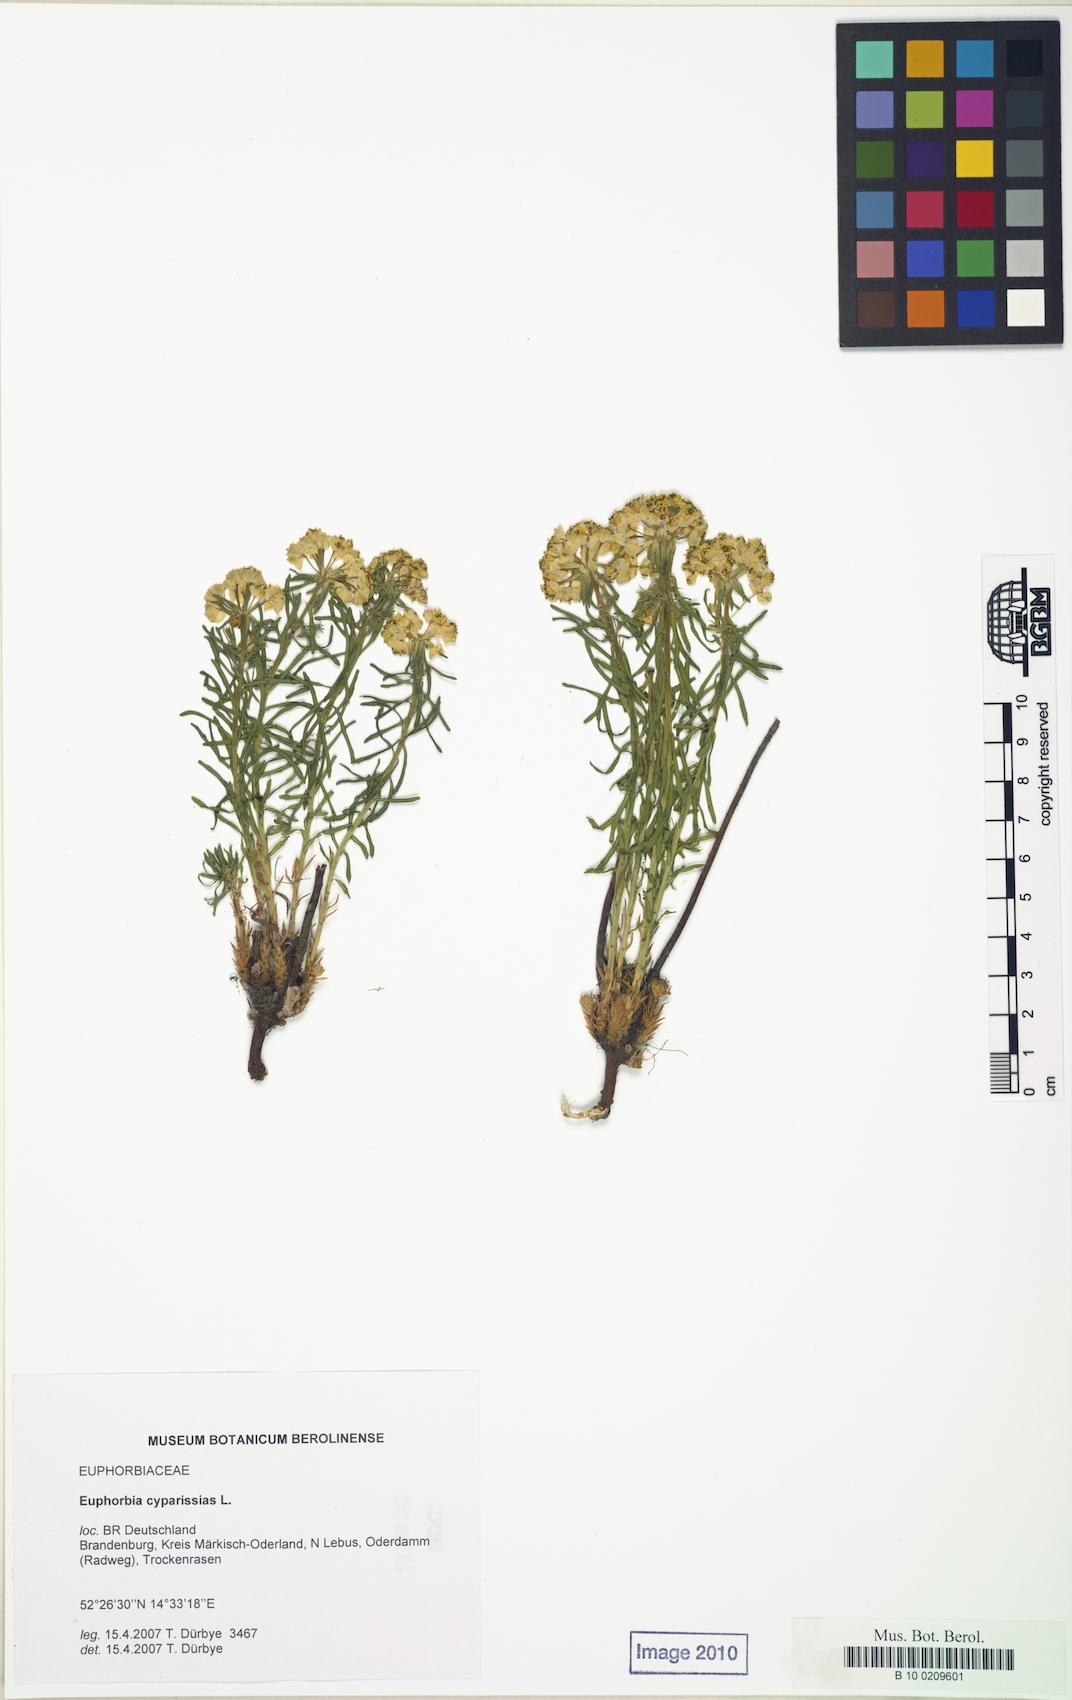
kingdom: Plantae
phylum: Tracheophyta
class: Magnoliopsida
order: Malpighiales
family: Euphorbiaceae
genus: Euphorbia
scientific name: Euphorbia cyparissias
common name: Cypress spurge
